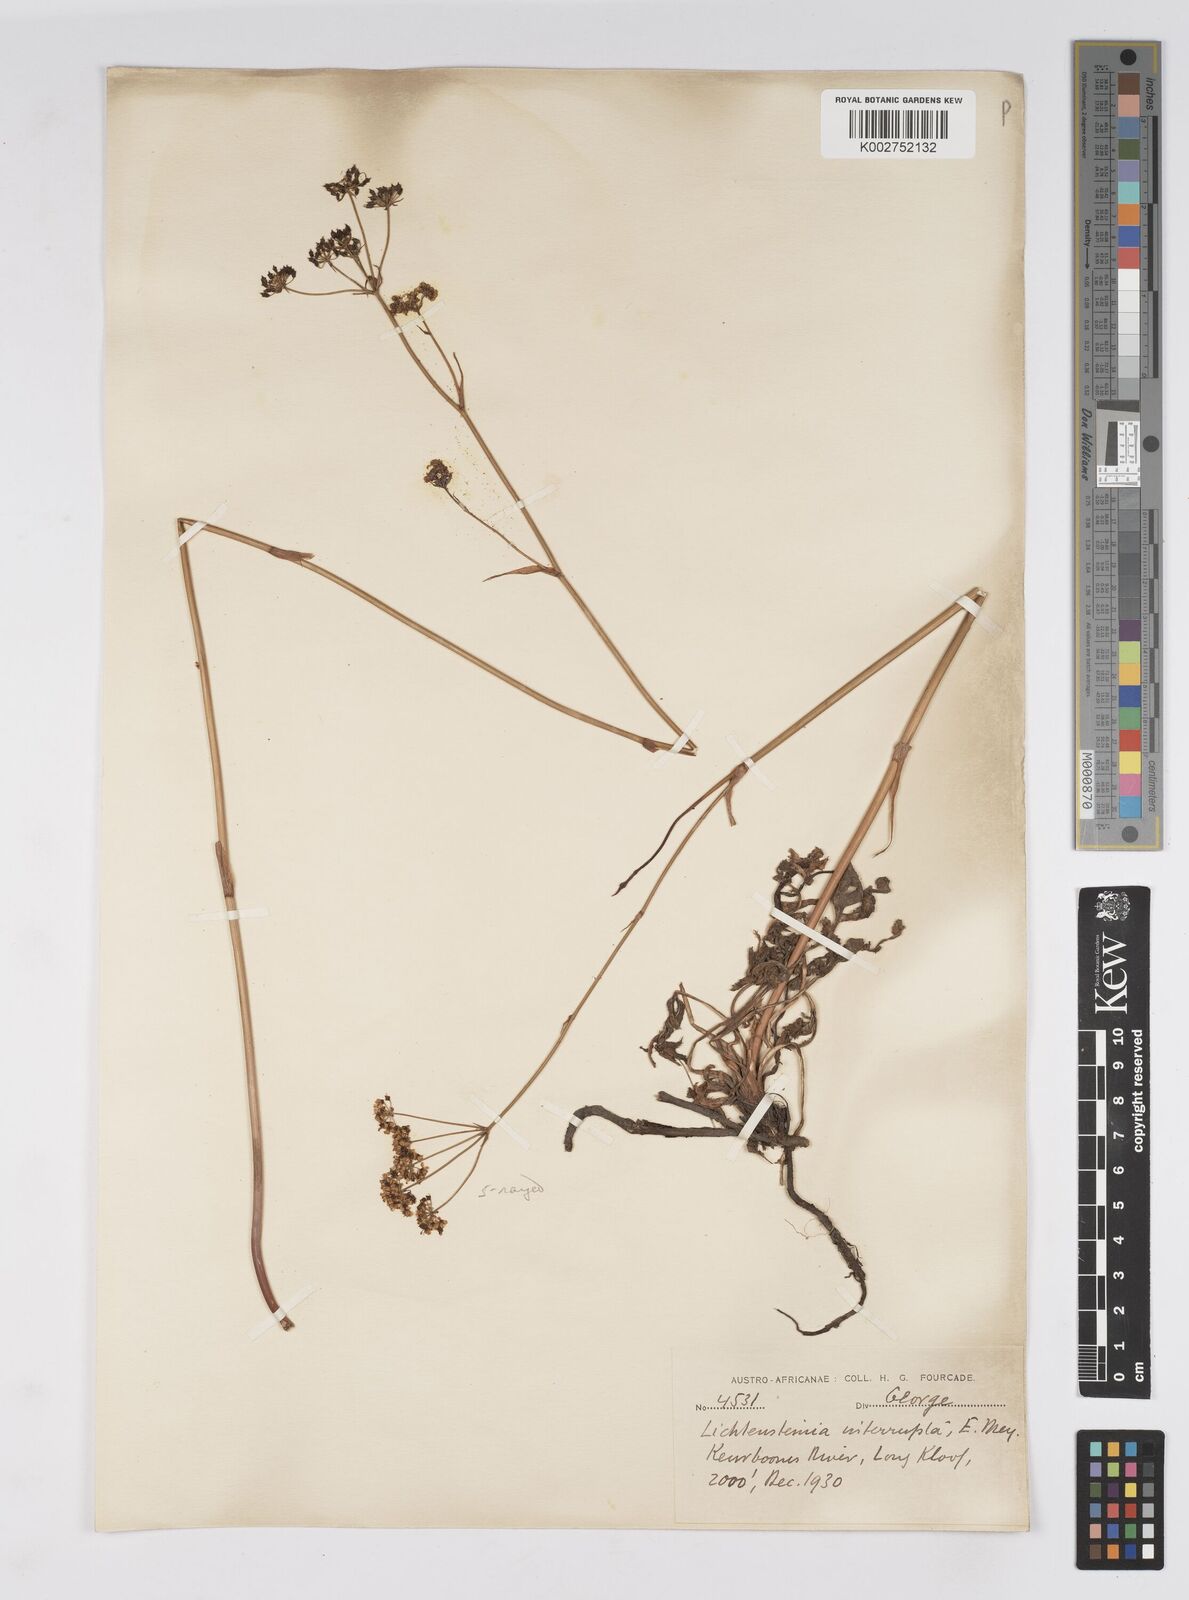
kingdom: Plantae
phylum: Tracheophyta
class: Magnoliopsida
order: Apiales
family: Apiaceae
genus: Lichtensteinia
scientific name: Lichtensteinia obscura
